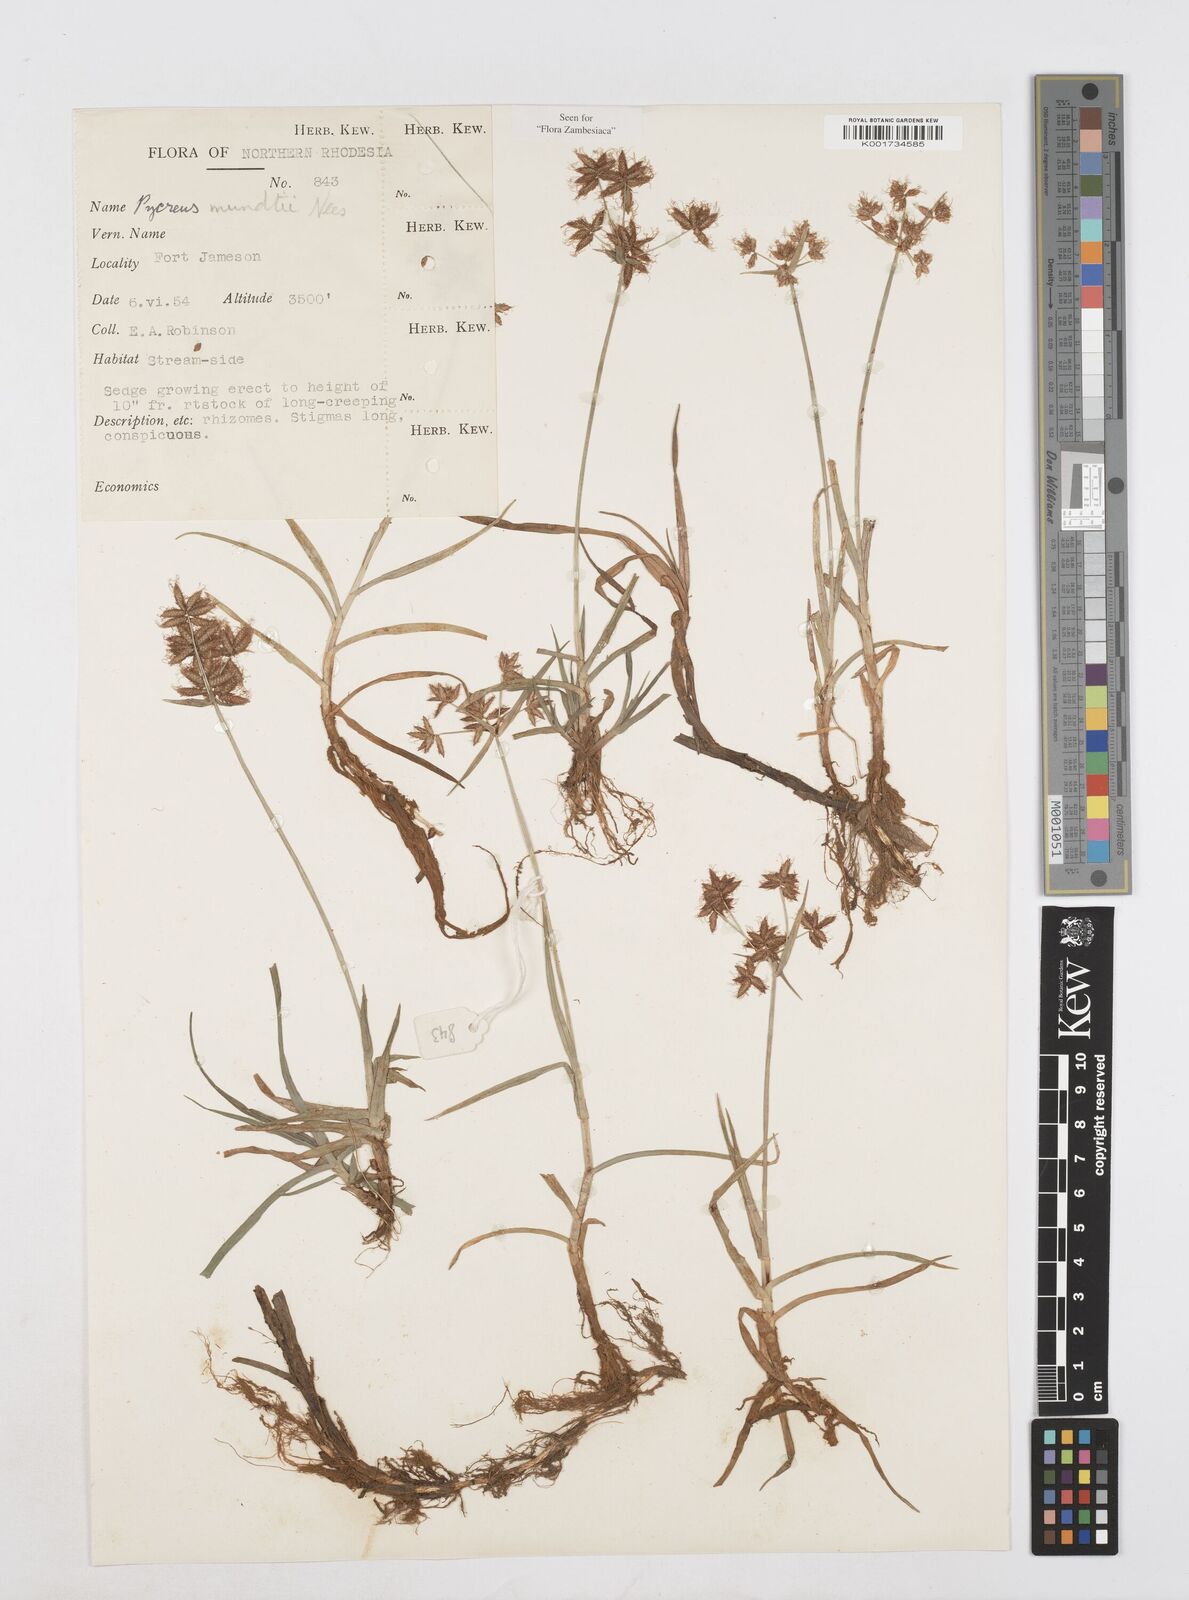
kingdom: Plantae
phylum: Tracheophyta
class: Liliopsida
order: Poales
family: Cyperaceae
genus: Cyperus
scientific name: Cyperus mundii
